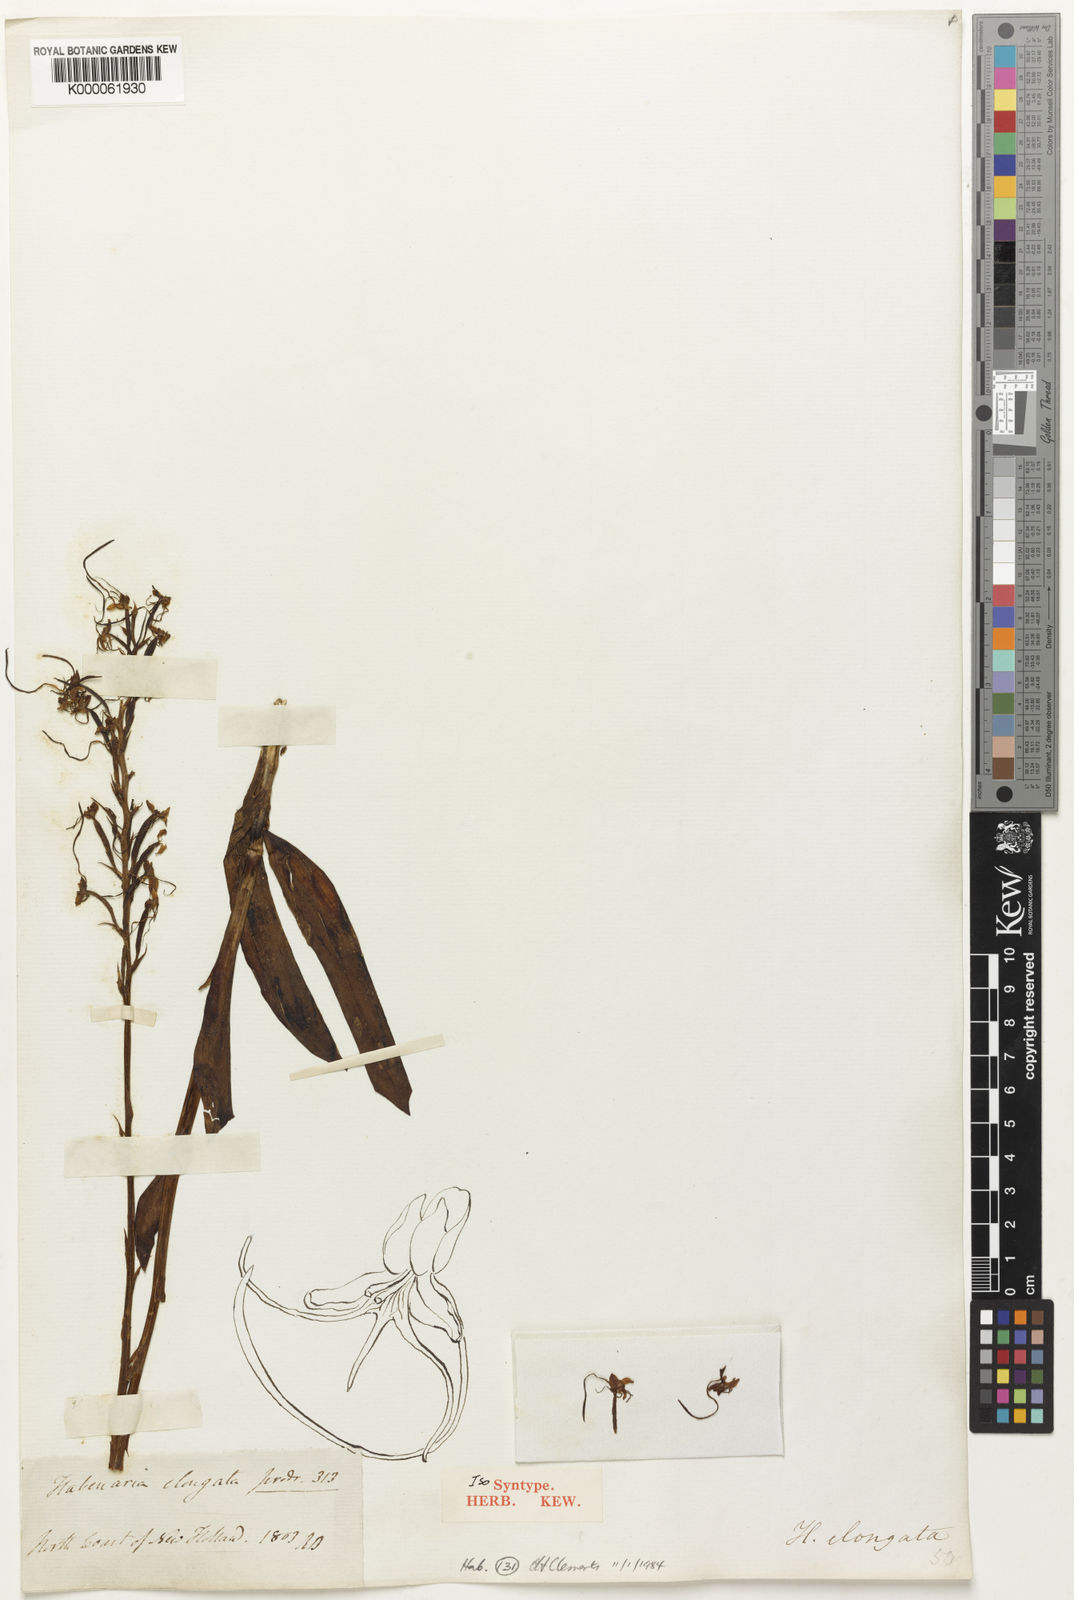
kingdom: Plantae
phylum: Tracheophyta
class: Liliopsida
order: Asparagales
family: Orchidaceae
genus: Habenaria
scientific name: Habenaria elongata
